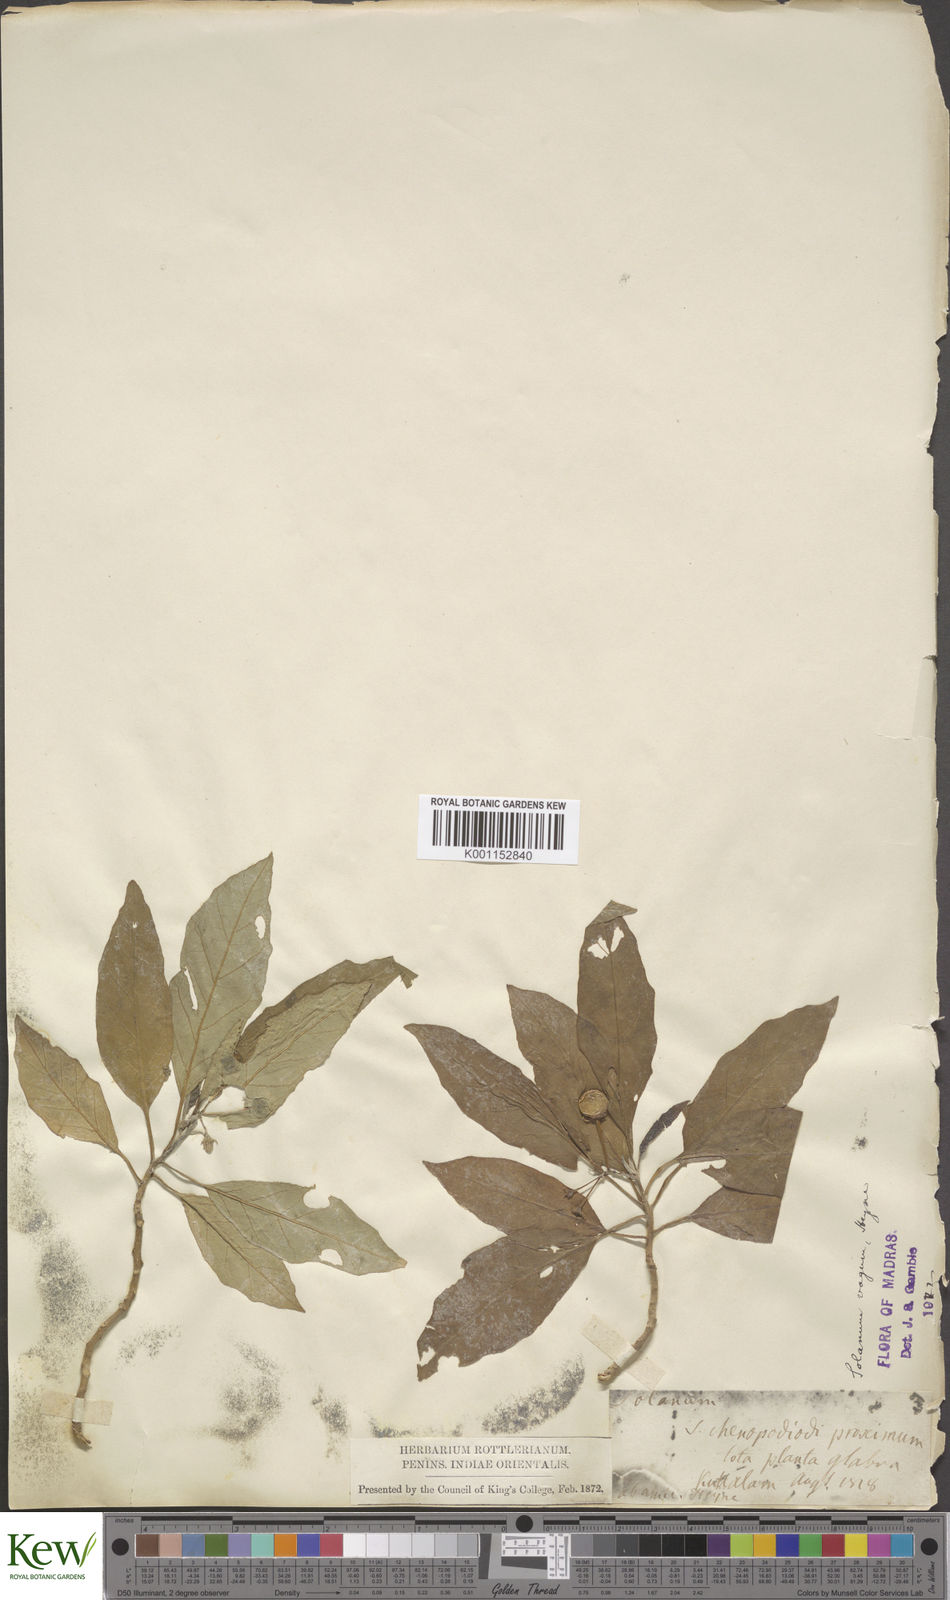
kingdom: Plantae
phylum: Tracheophyta
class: Magnoliopsida
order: Solanales
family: Solanaceae
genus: Solanum
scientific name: Solanum
